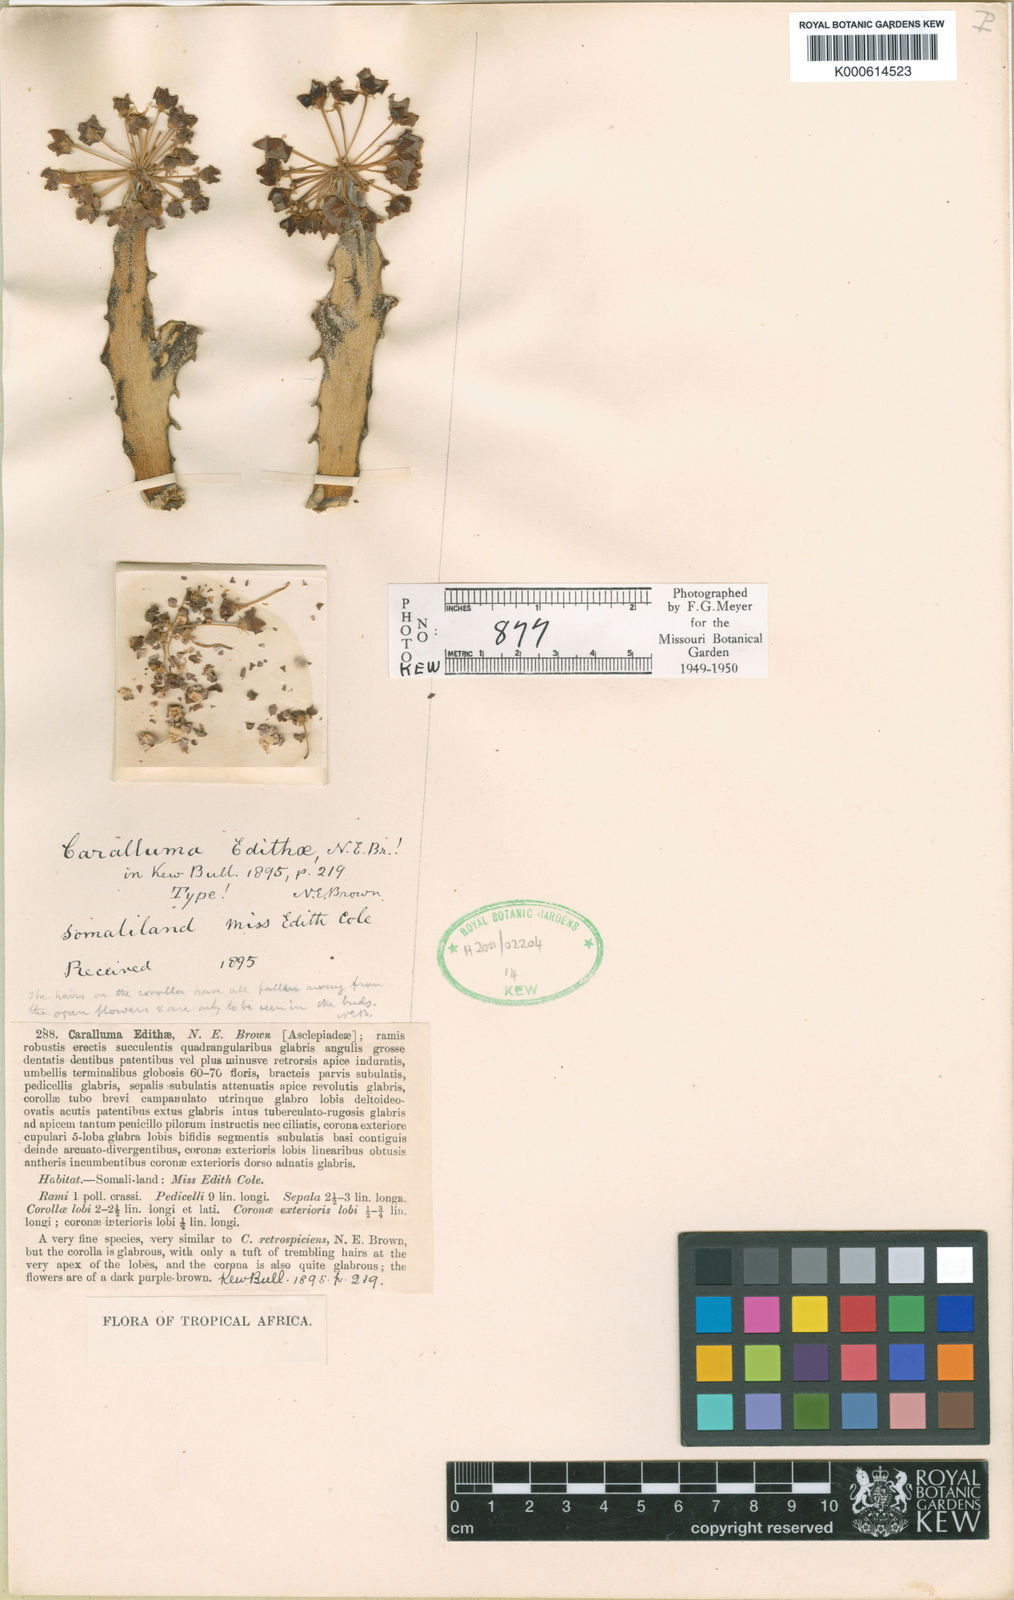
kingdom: Plantae
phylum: Tracheophyta
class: Magnoliopsida
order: Gentianales
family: Apocynaceae
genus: Ceropegia
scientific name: Ceropegia edithiae
